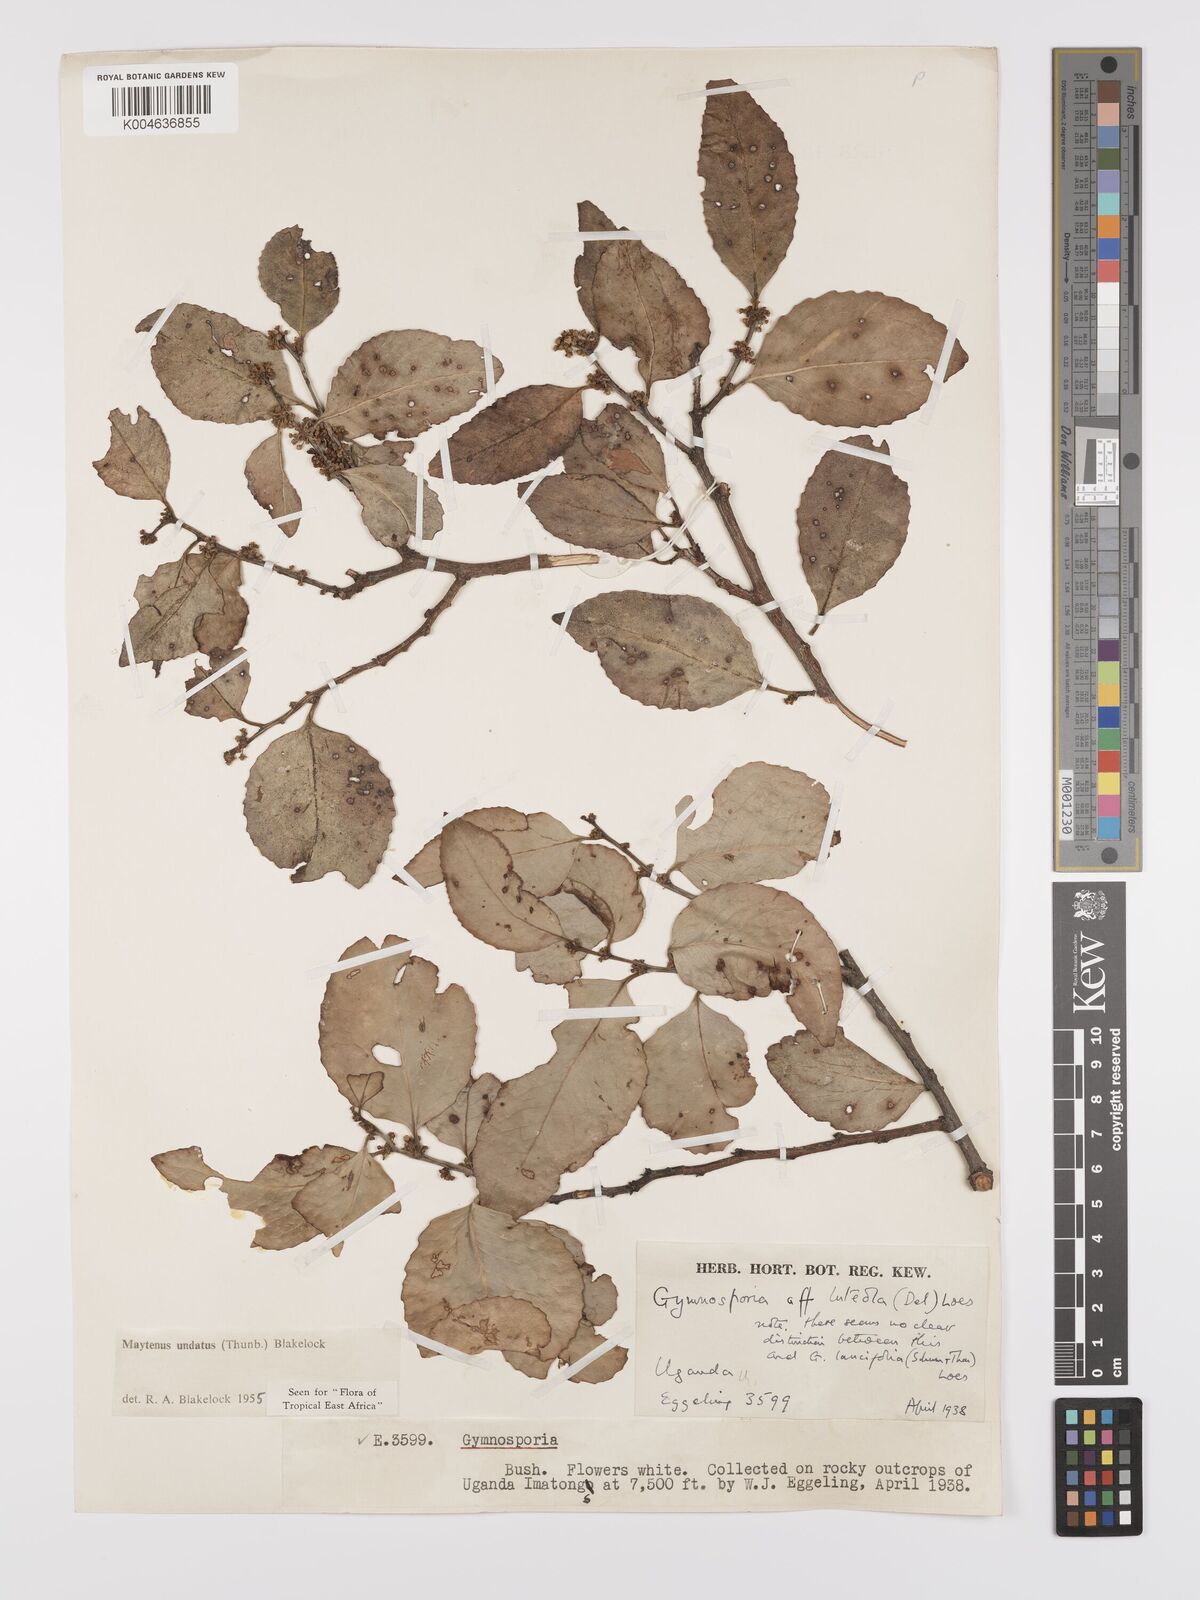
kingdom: Plantae
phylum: Tracheophyta
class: Magnoliopsida
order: Celastrales
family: Celastraceae
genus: Gymnosporia
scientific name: Gymnosporia undata
